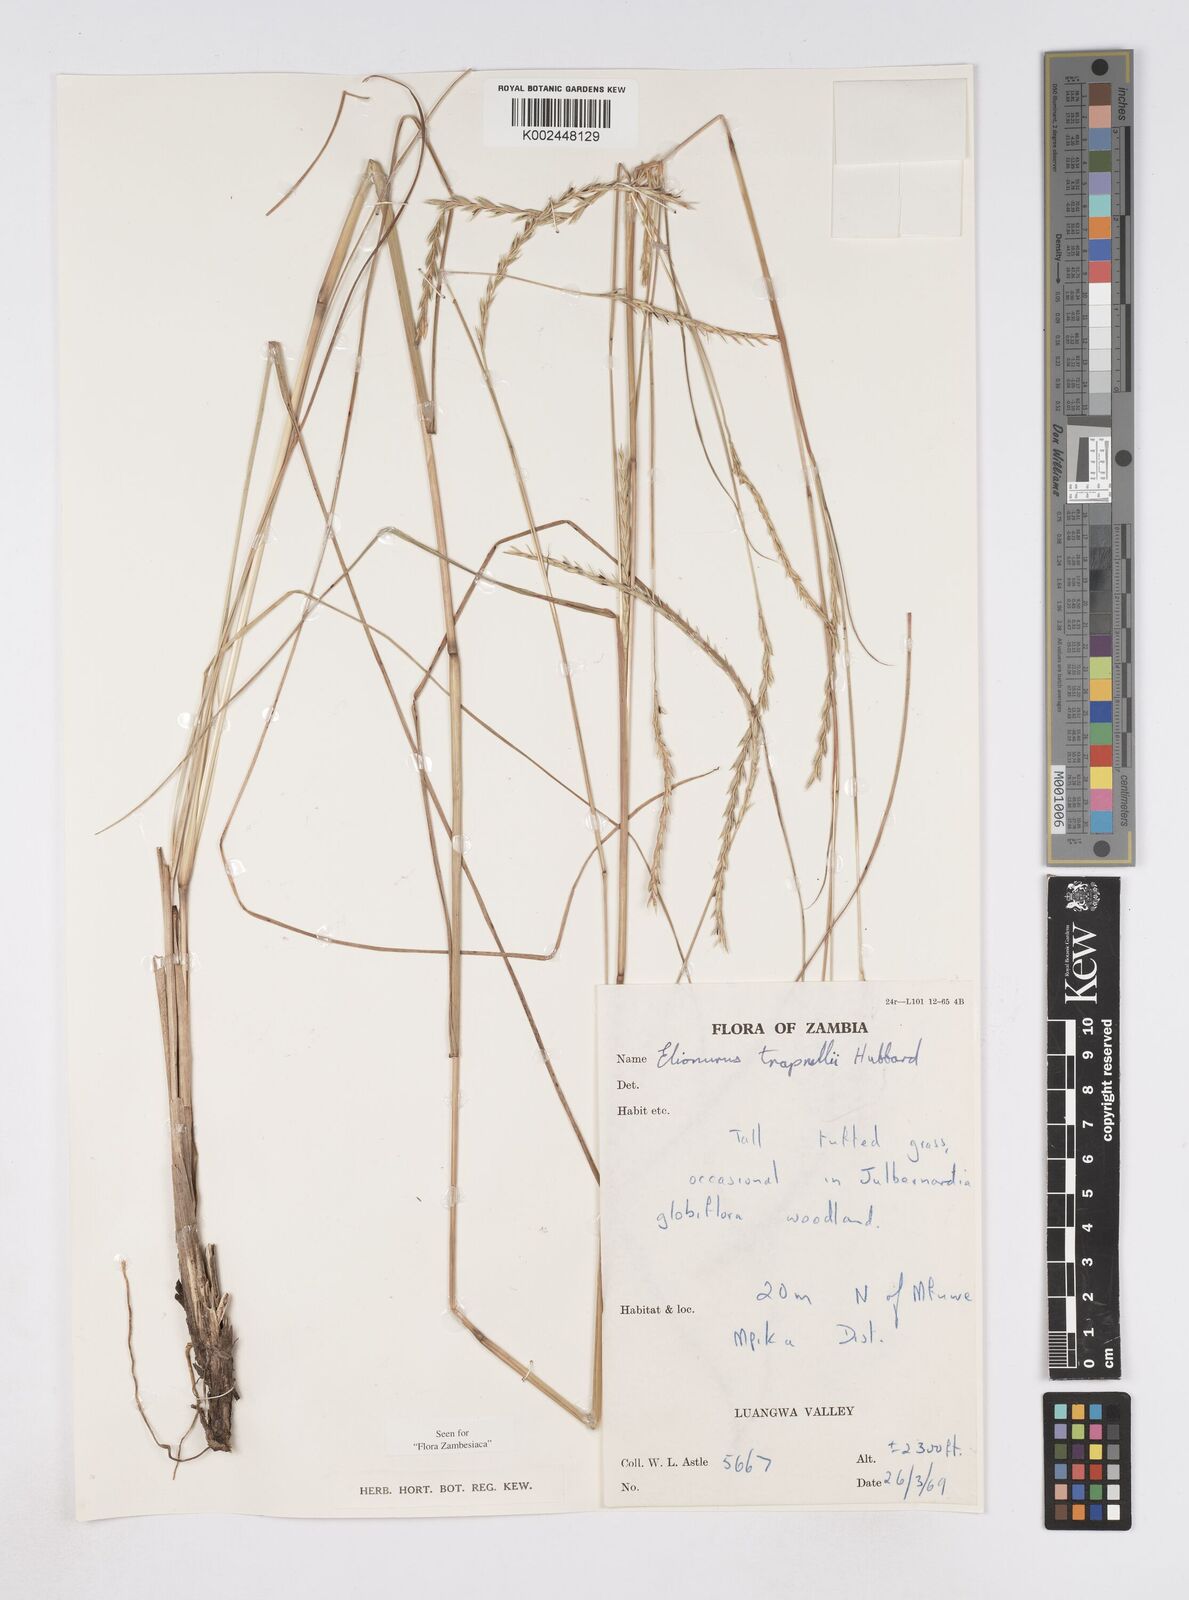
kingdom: Plantae
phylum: Tracheophyta
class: Liliopsida
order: Poales
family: Poaceae
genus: Elionurus
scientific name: Elionurus tripsacoides
